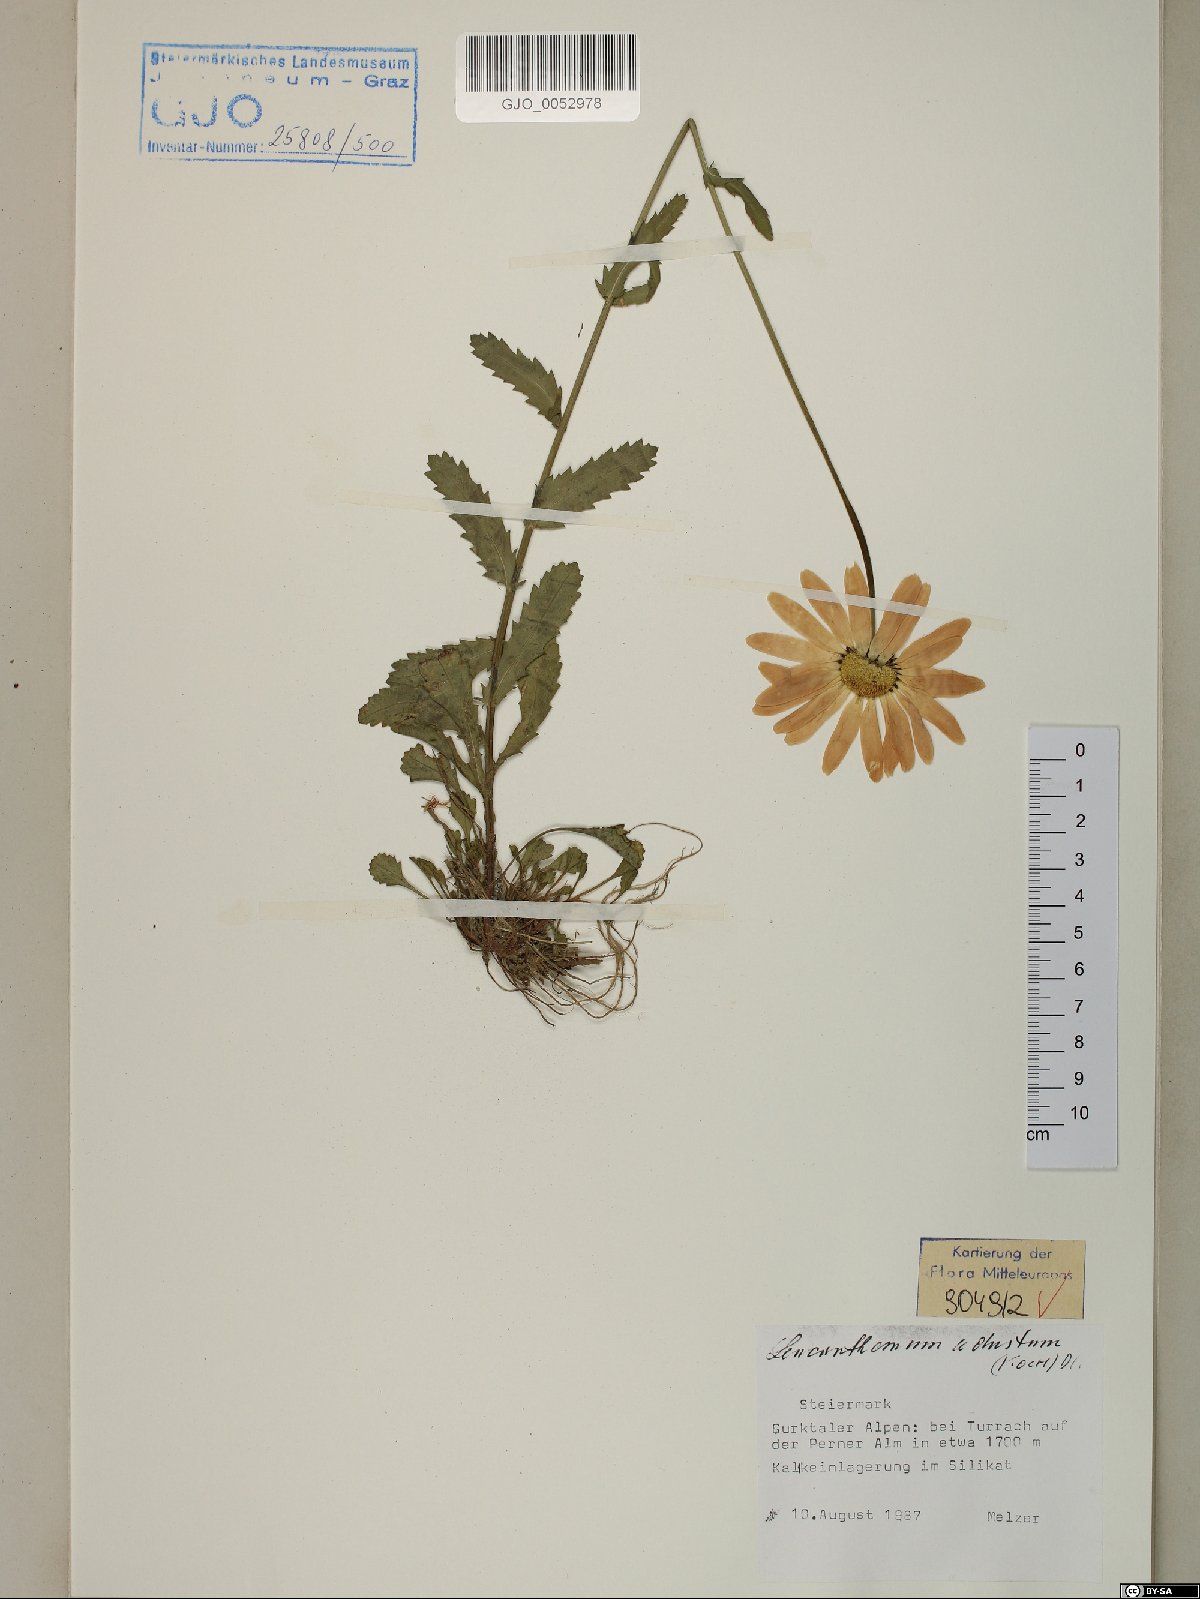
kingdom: Plantae
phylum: Tracheophyta
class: Magnoliopsida
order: Asterales
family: Asteraceae
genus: Leucanthemum
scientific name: Leucanthemum adustum
